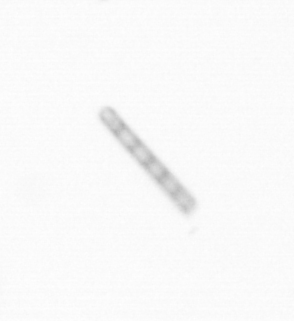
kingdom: Chromista
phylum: Ochrophyta
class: Bacillariophyceae
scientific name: Bacillariophyceae
